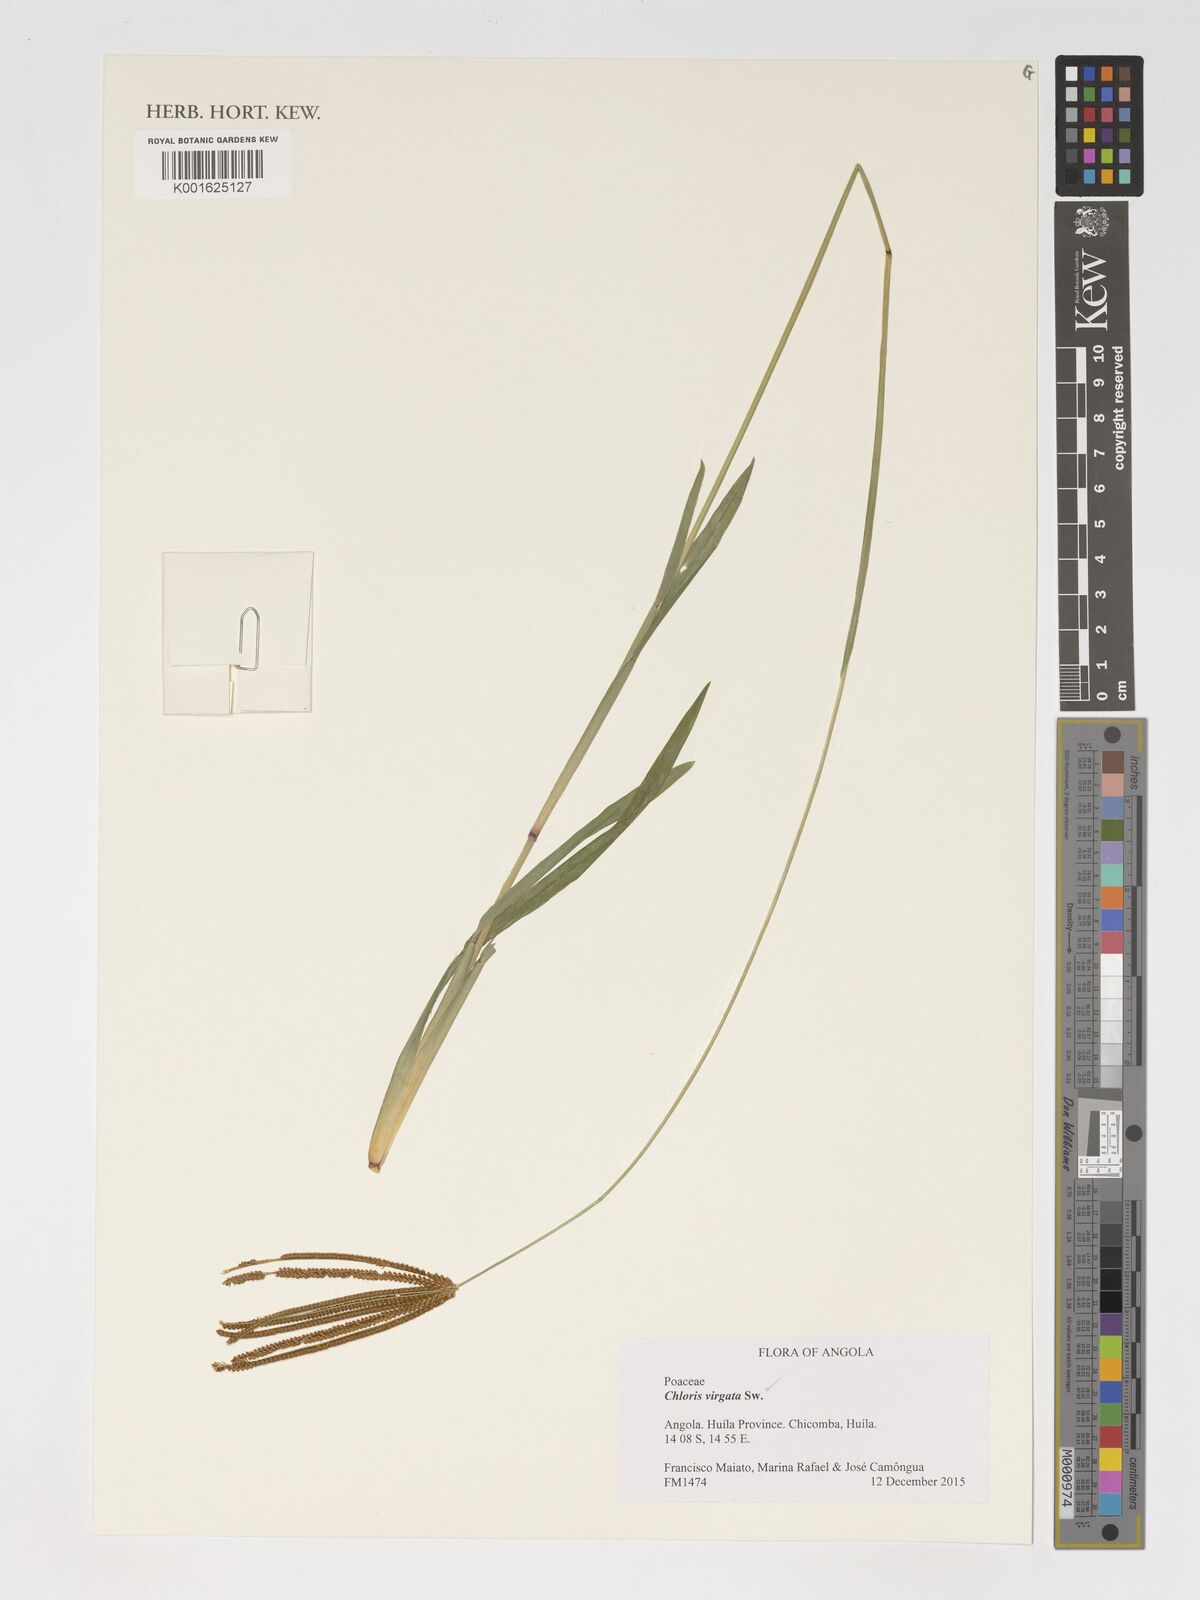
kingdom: Plantae
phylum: Tracheophyta
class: Liliopsida
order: Poales
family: Poaceae
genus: Chloris
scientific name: Chloris virgata
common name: Feathery rhodes-grass
